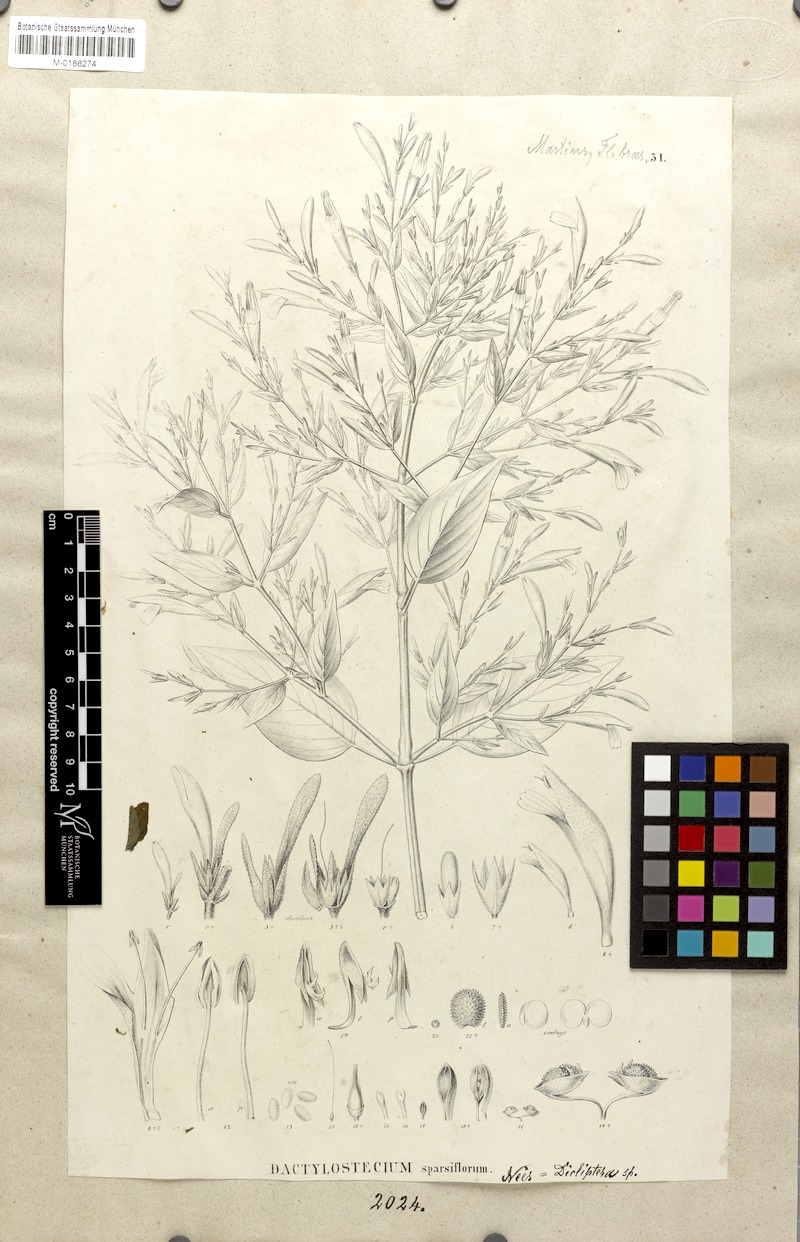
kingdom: Plantae
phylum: Tracheophyta
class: Magnoliopsida
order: Lamiales
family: Acanthaceae
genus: Dicliptera
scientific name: Dicliptera sparsiflora
